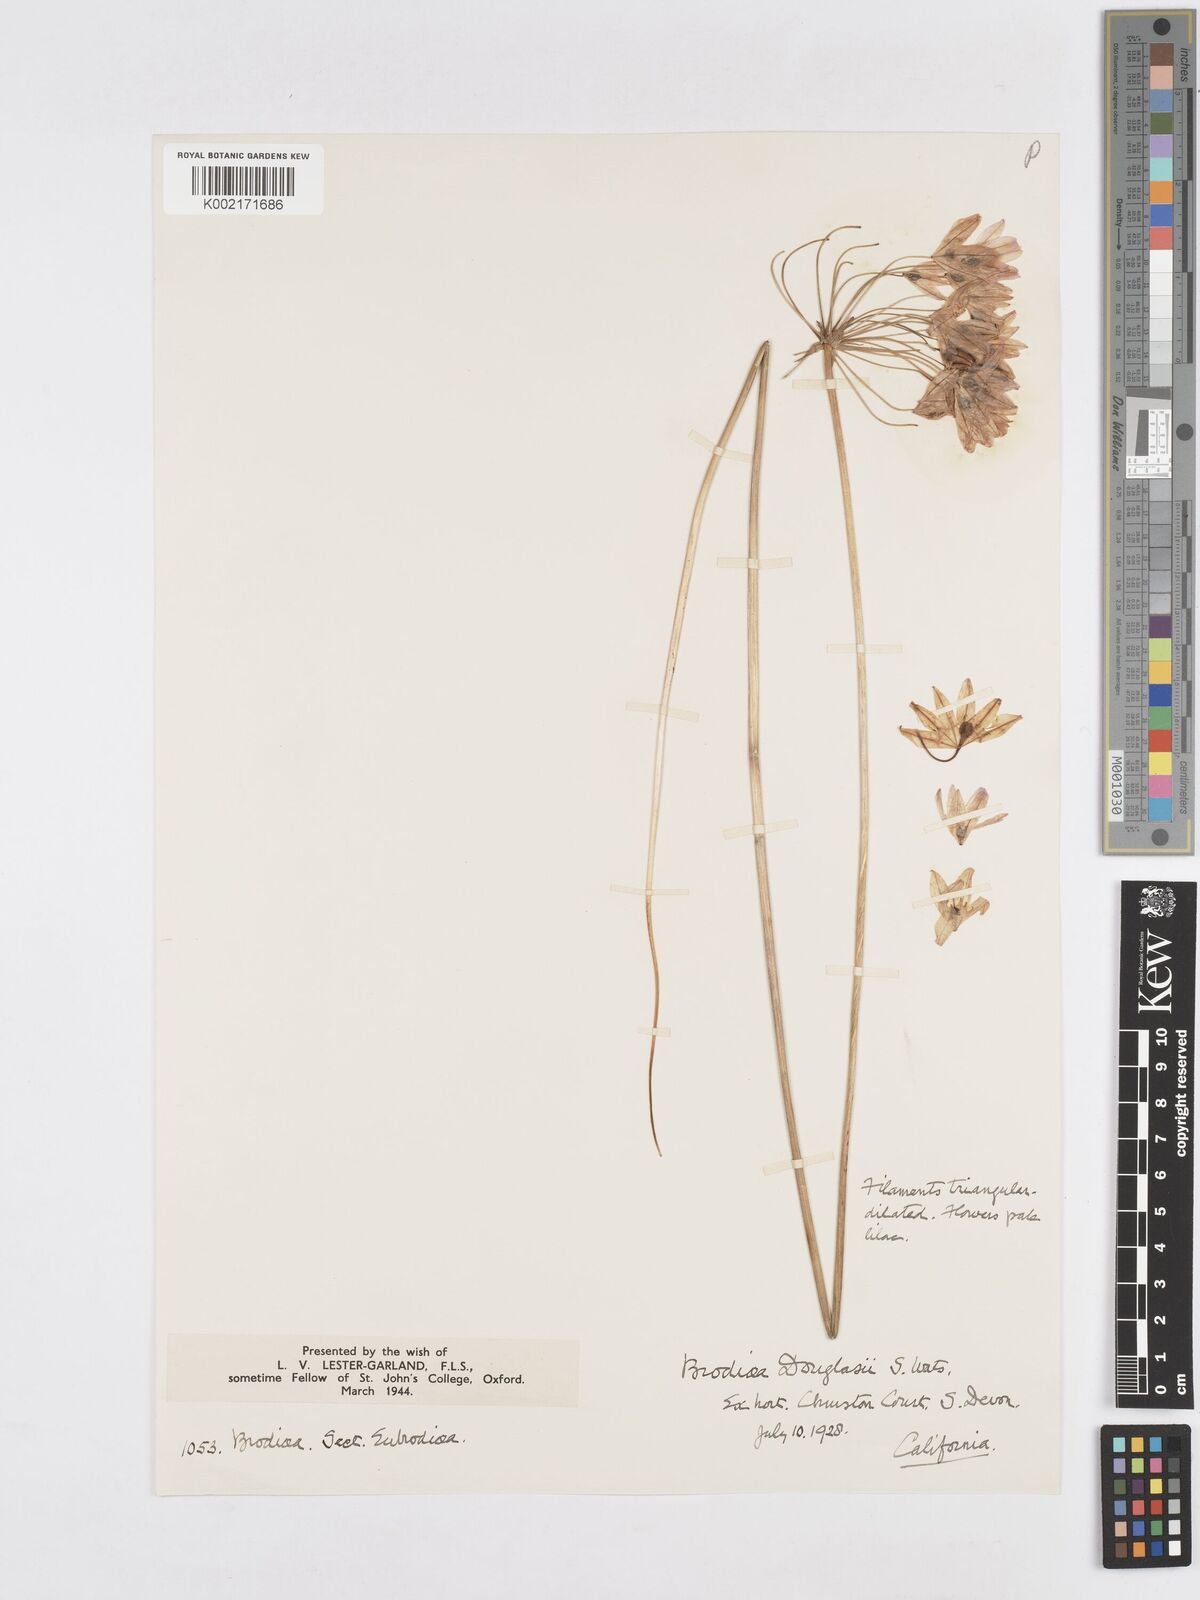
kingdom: Plantae
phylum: Tracheophyta
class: Liliopsida
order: Asparagales
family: Asparagaceae
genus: Triteleia
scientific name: Triteleia grandiflora
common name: Wild hyacinth
